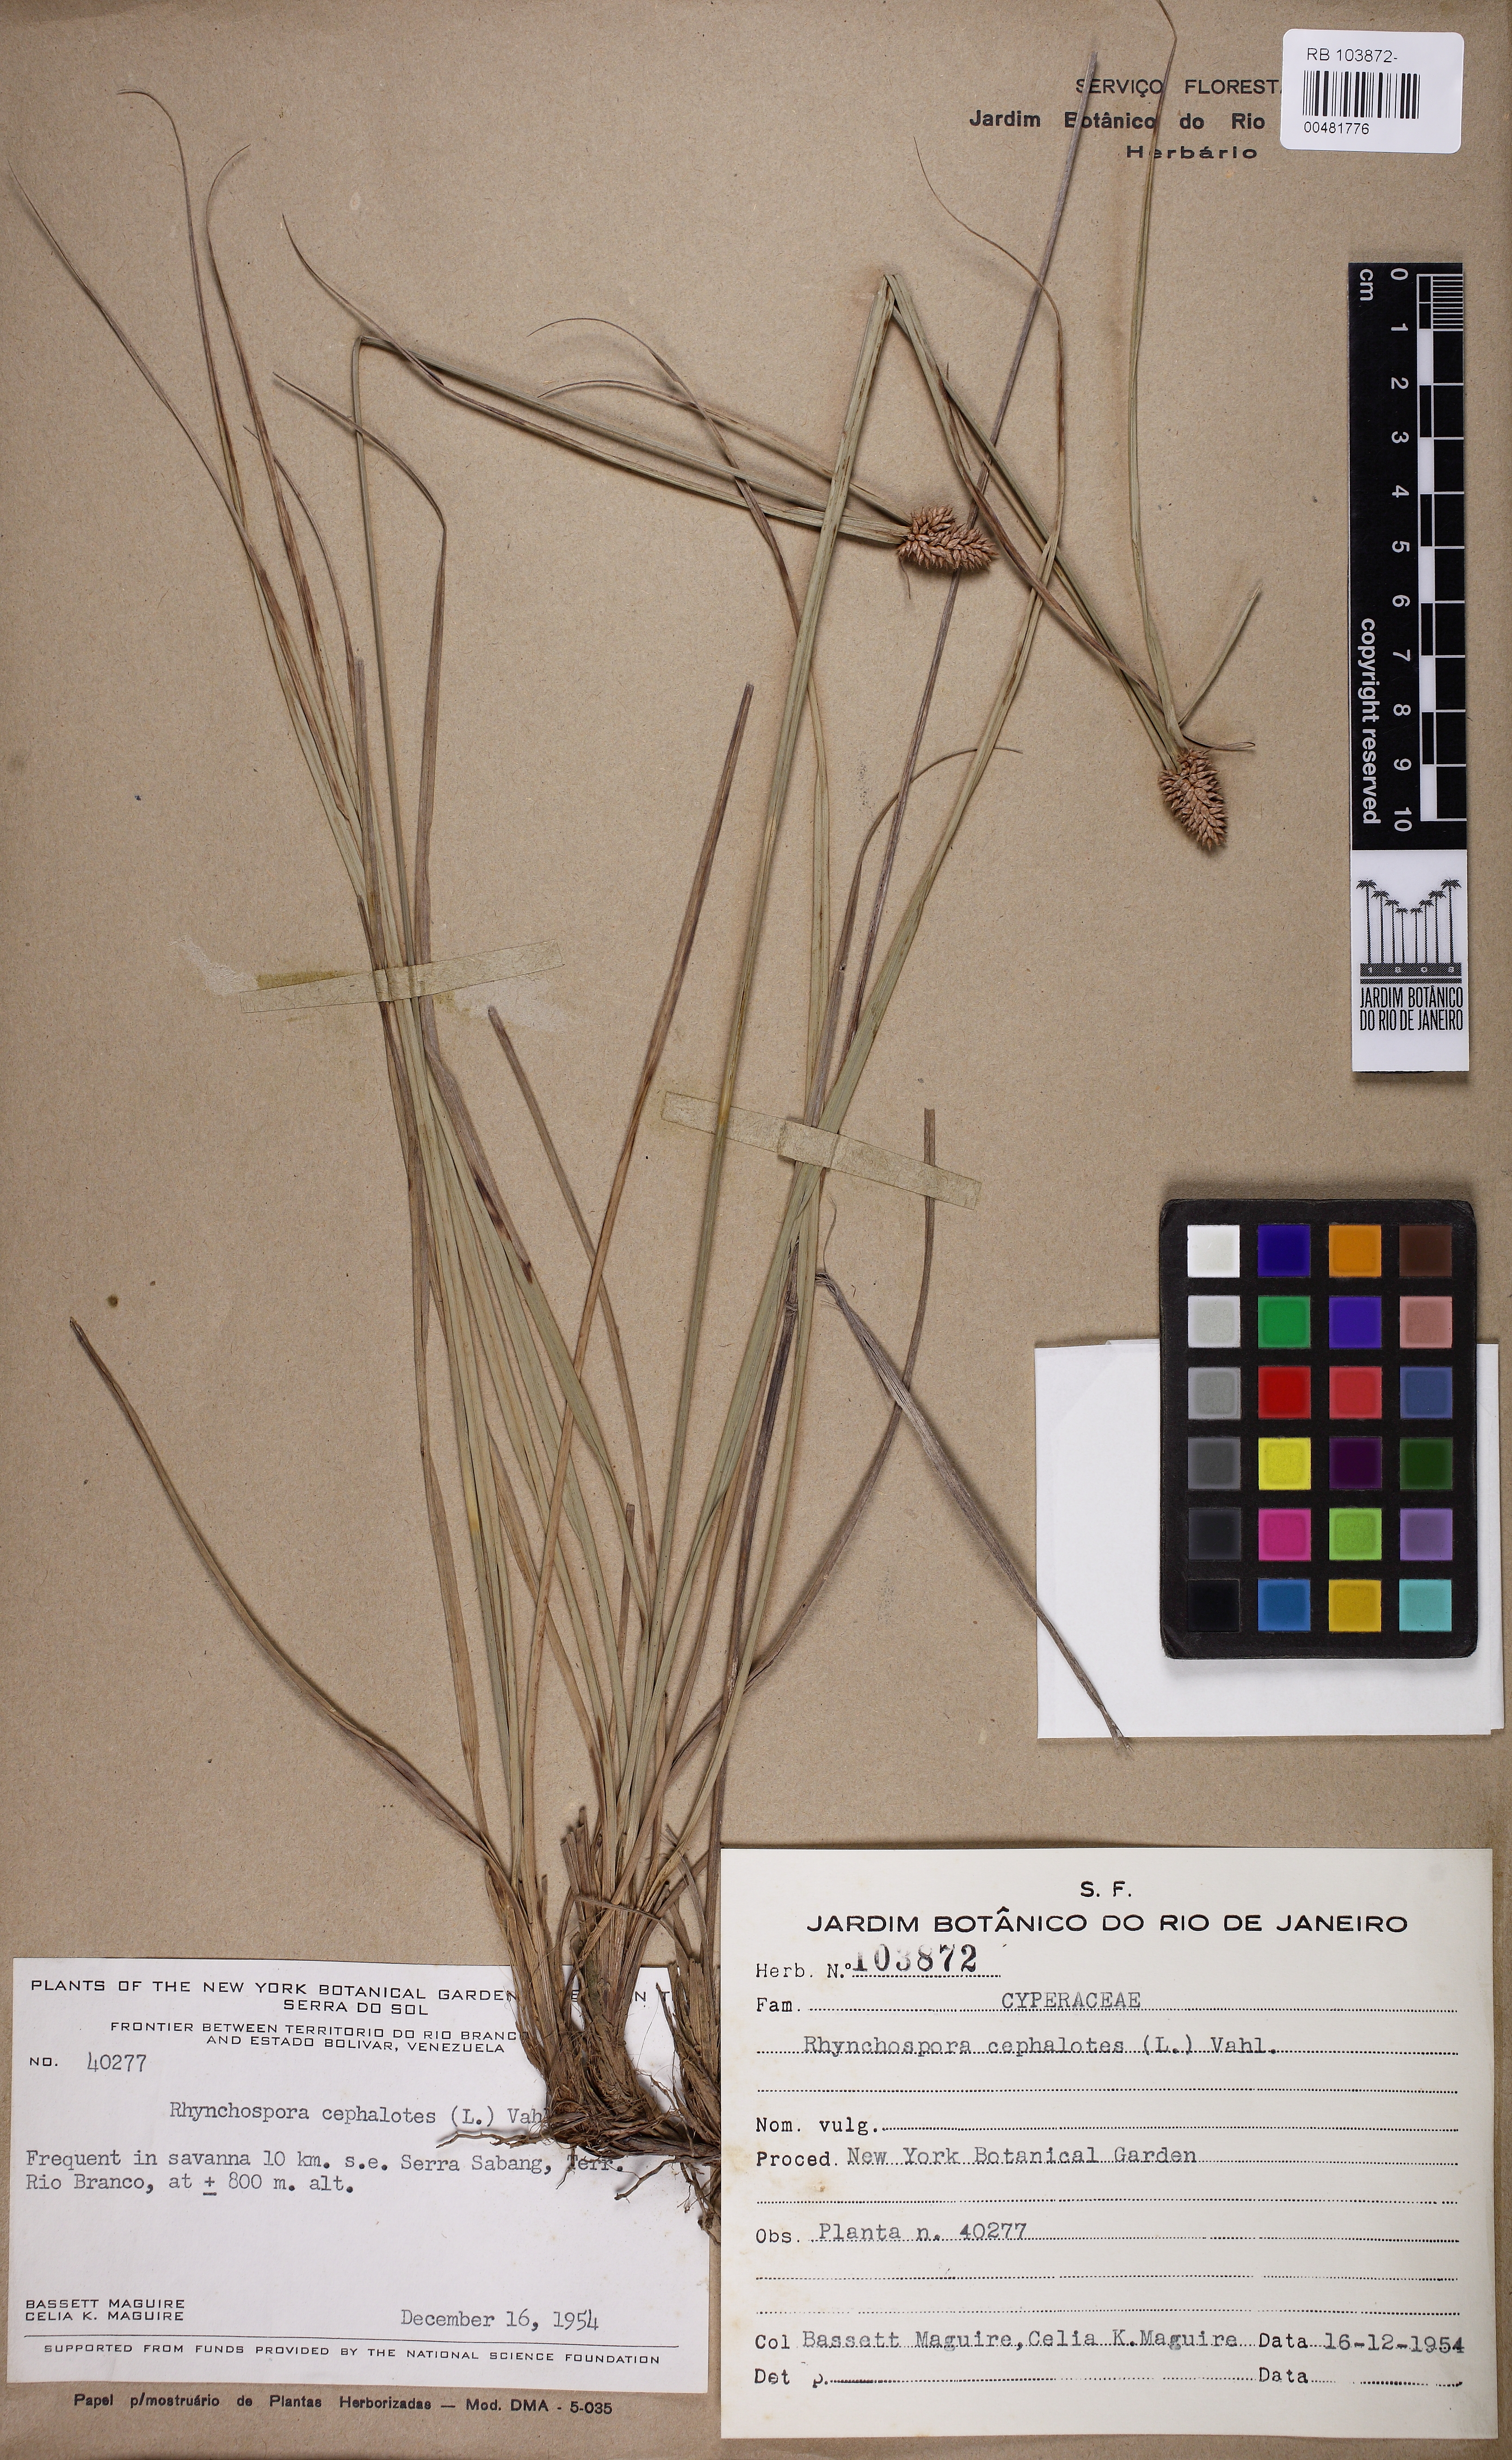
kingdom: Plantae
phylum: Tracheophyta
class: Liliopsida
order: Poales
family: Cyperaceae
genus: Rhynchospora
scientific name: Rhynchospora cephalotes
